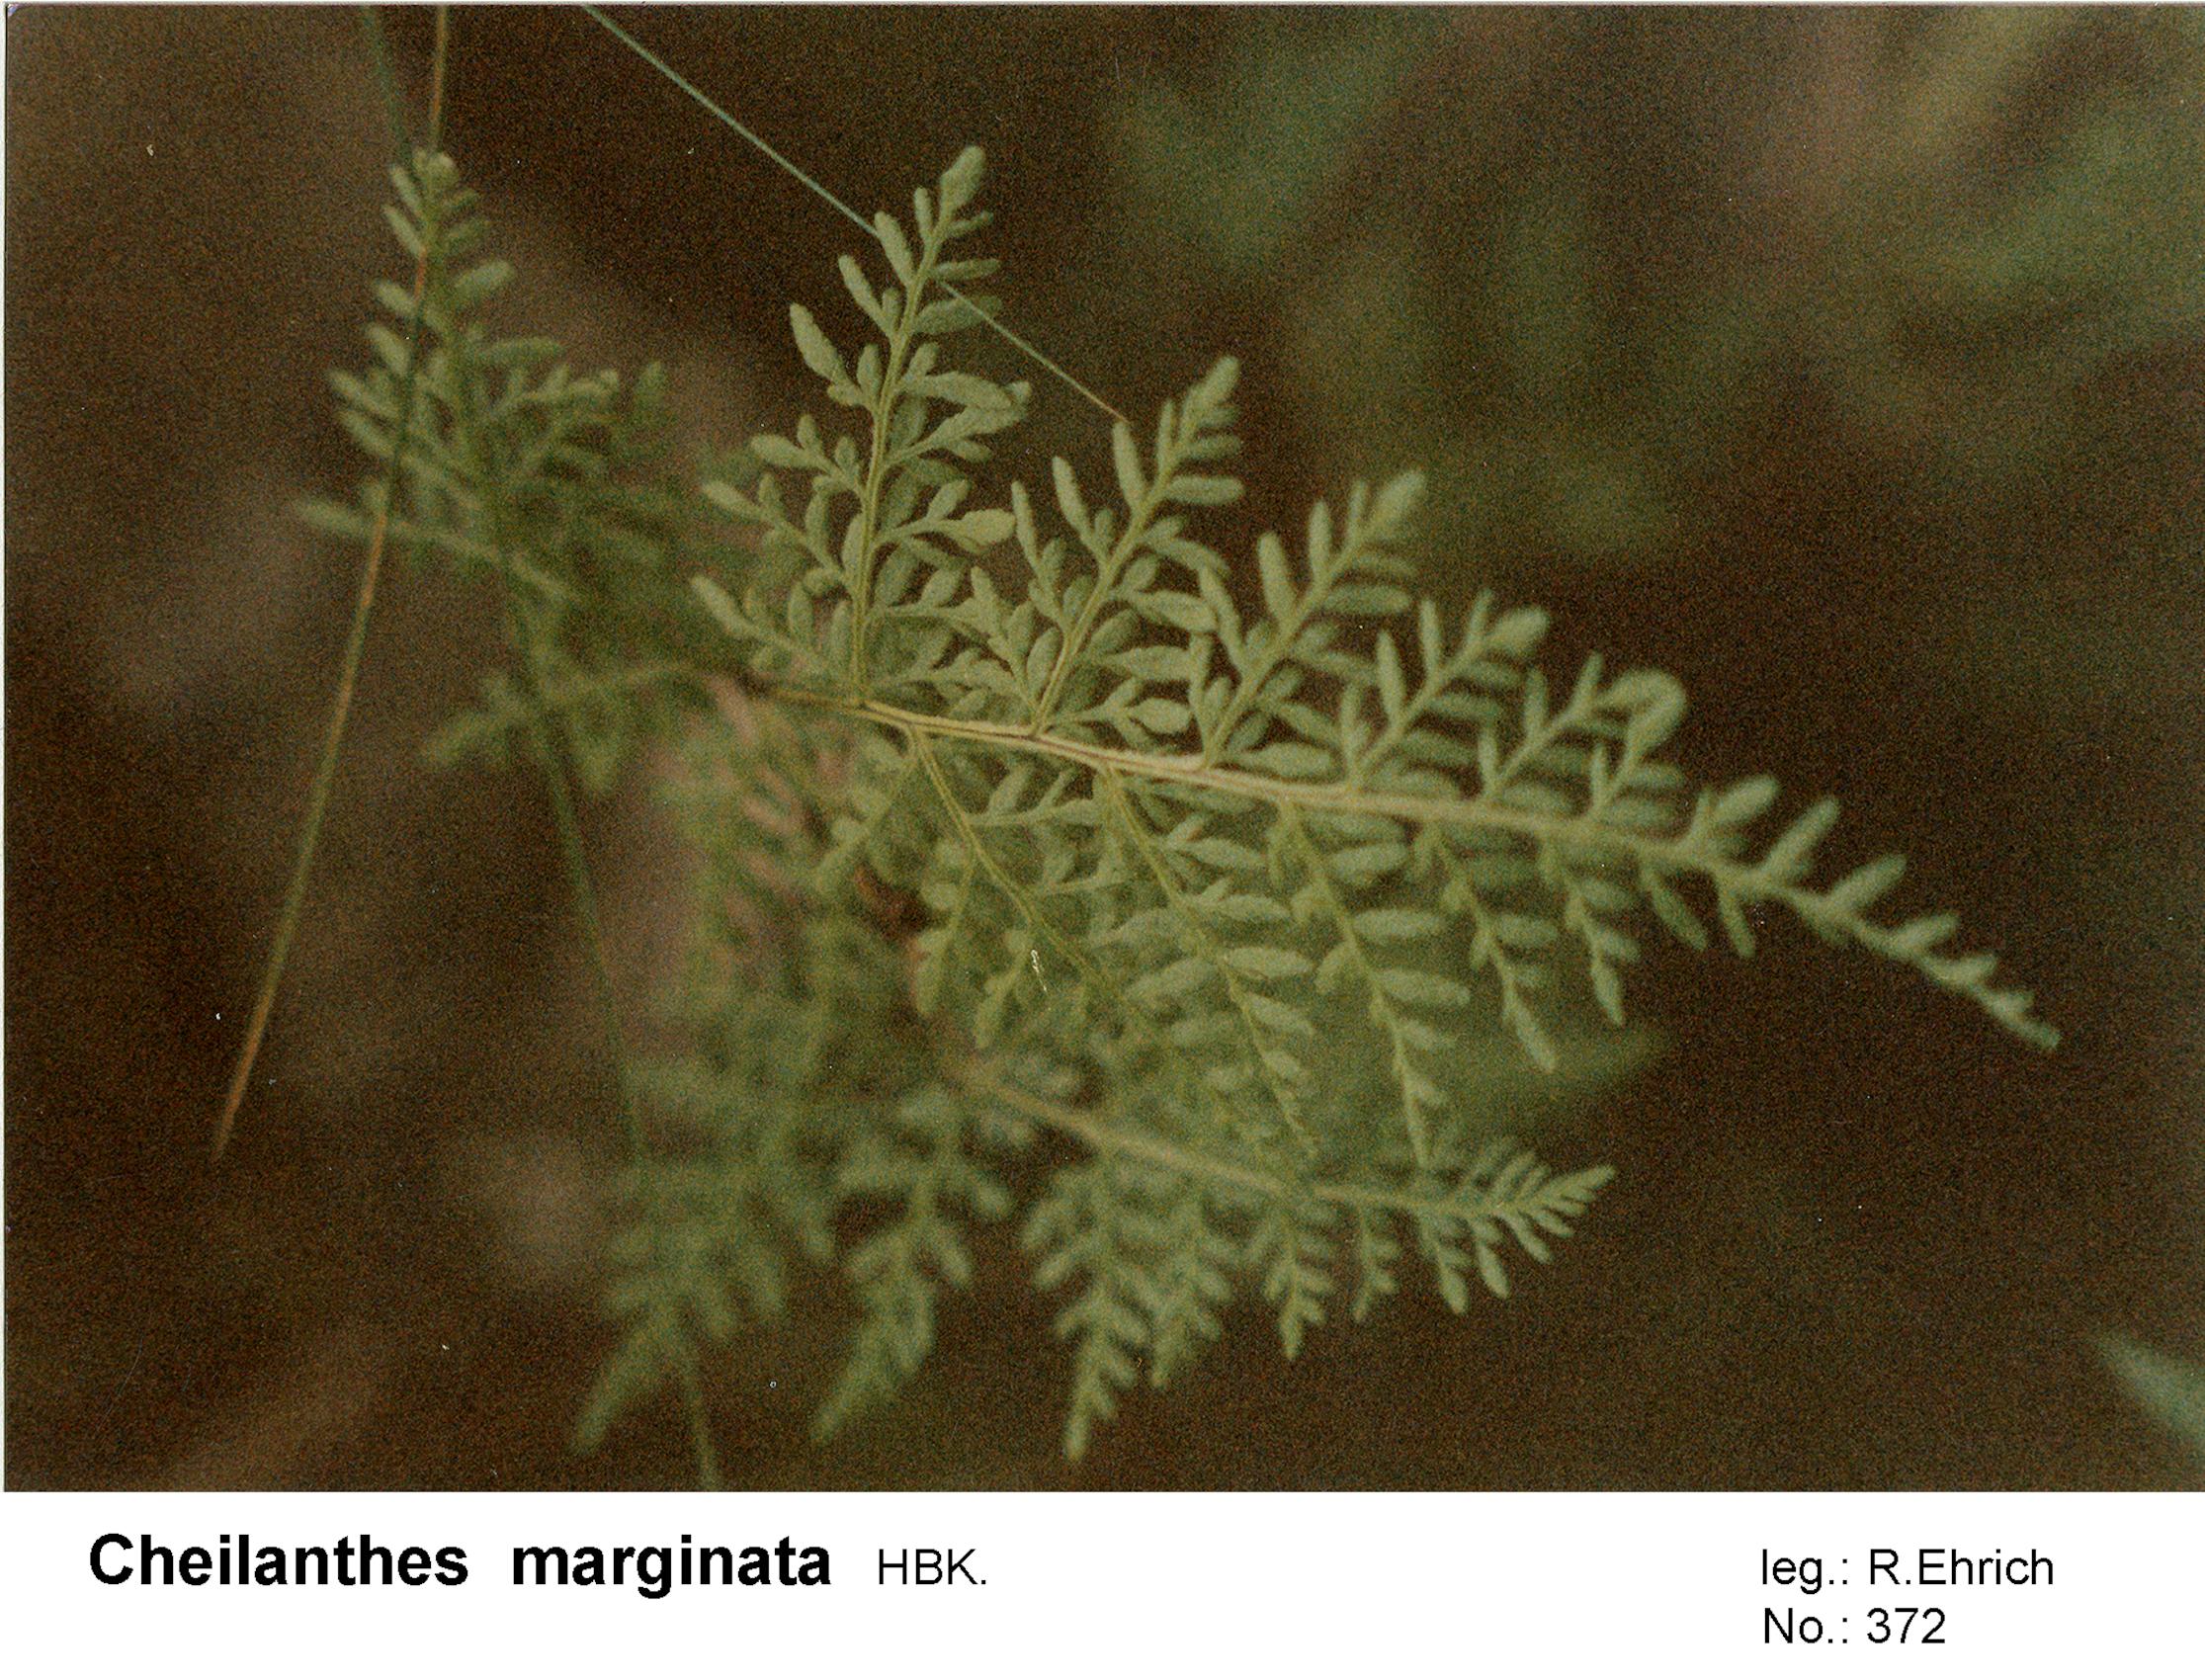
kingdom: Plantae
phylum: Tracheophyta
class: Polypodiopsida
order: Polypodiales
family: Pteridaceae
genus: Gaga
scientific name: Gaga marginata
